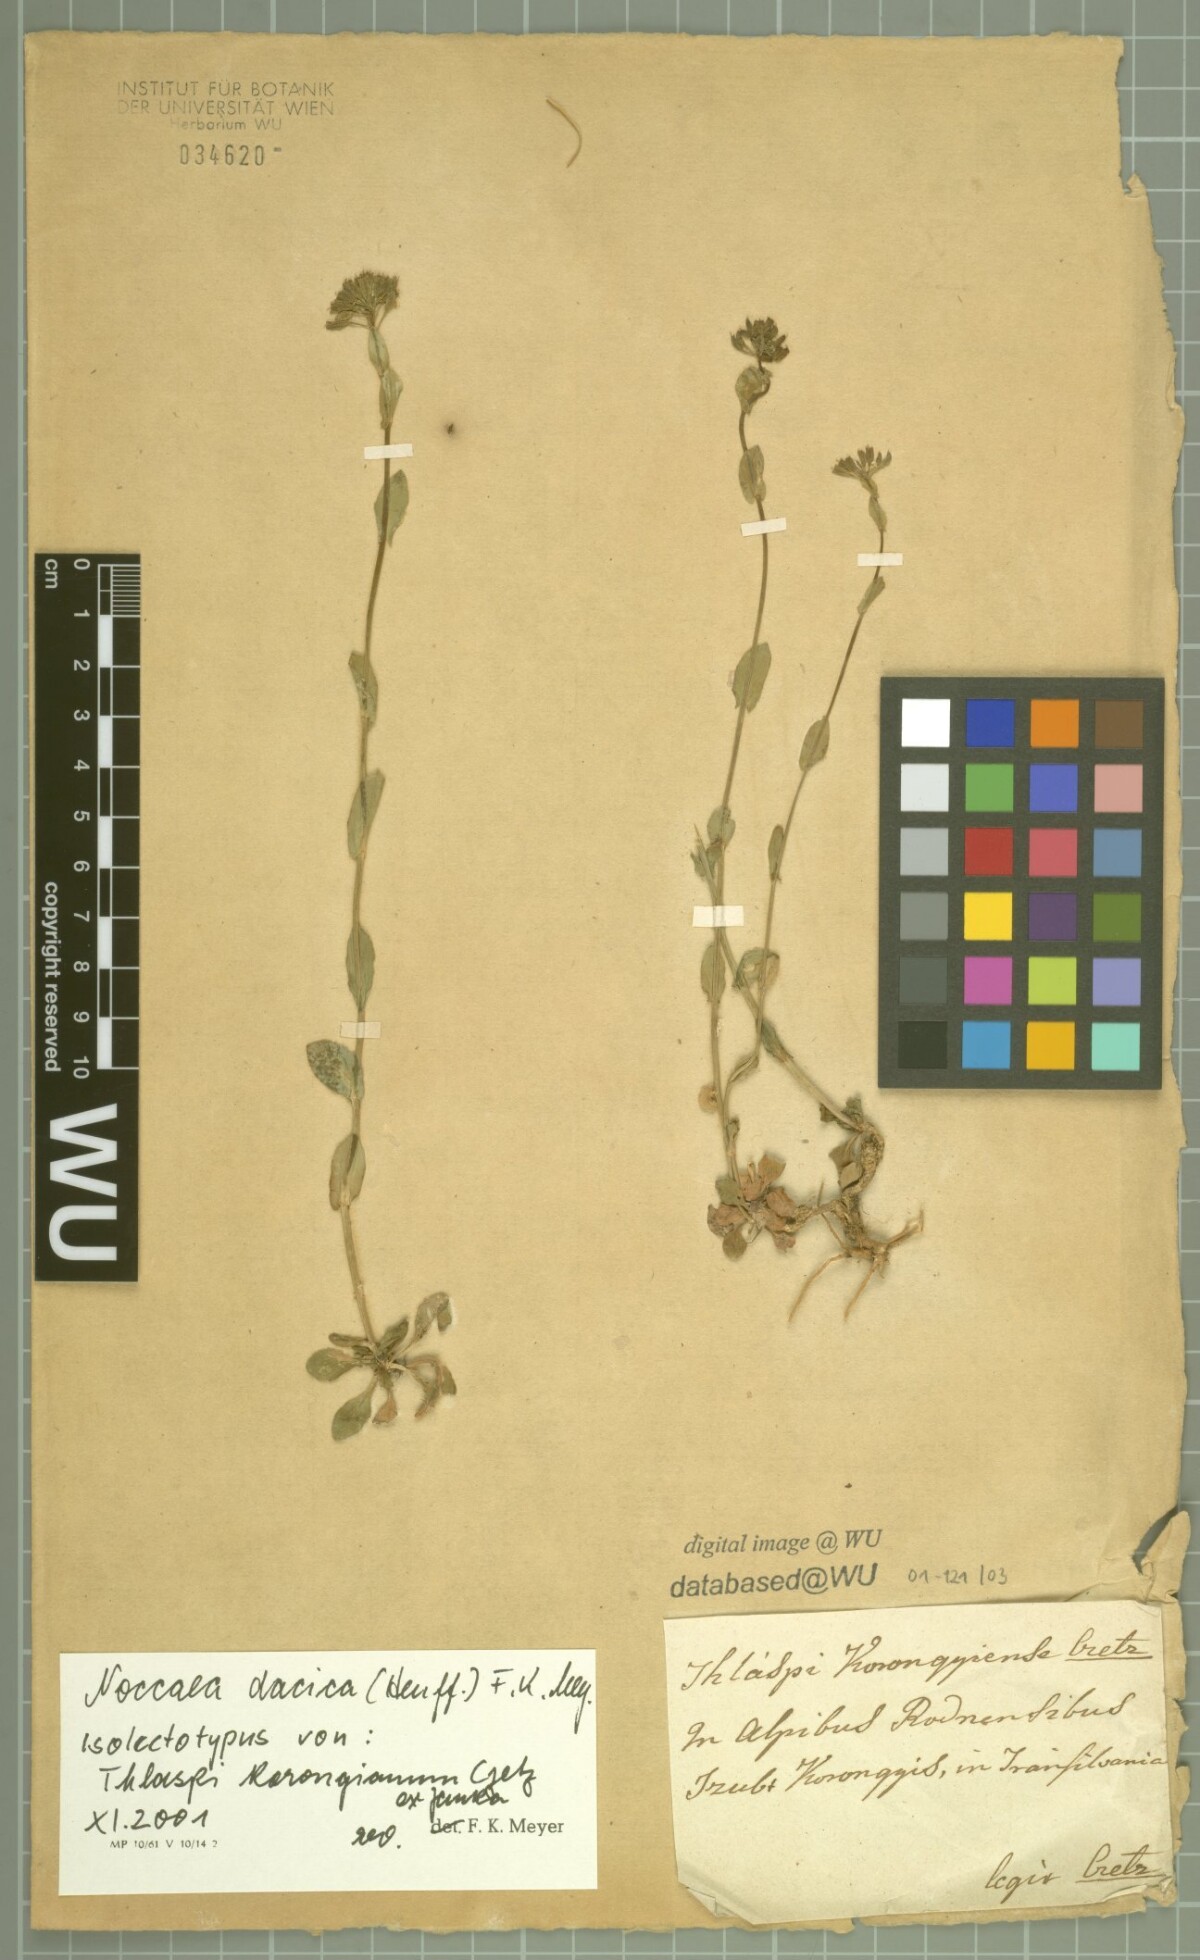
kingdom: Plantae
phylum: Tracheophyta
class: Magnoliopsida
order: Brassicales
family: Brassicaceae
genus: Noccaea
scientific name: Noccaea dacica
